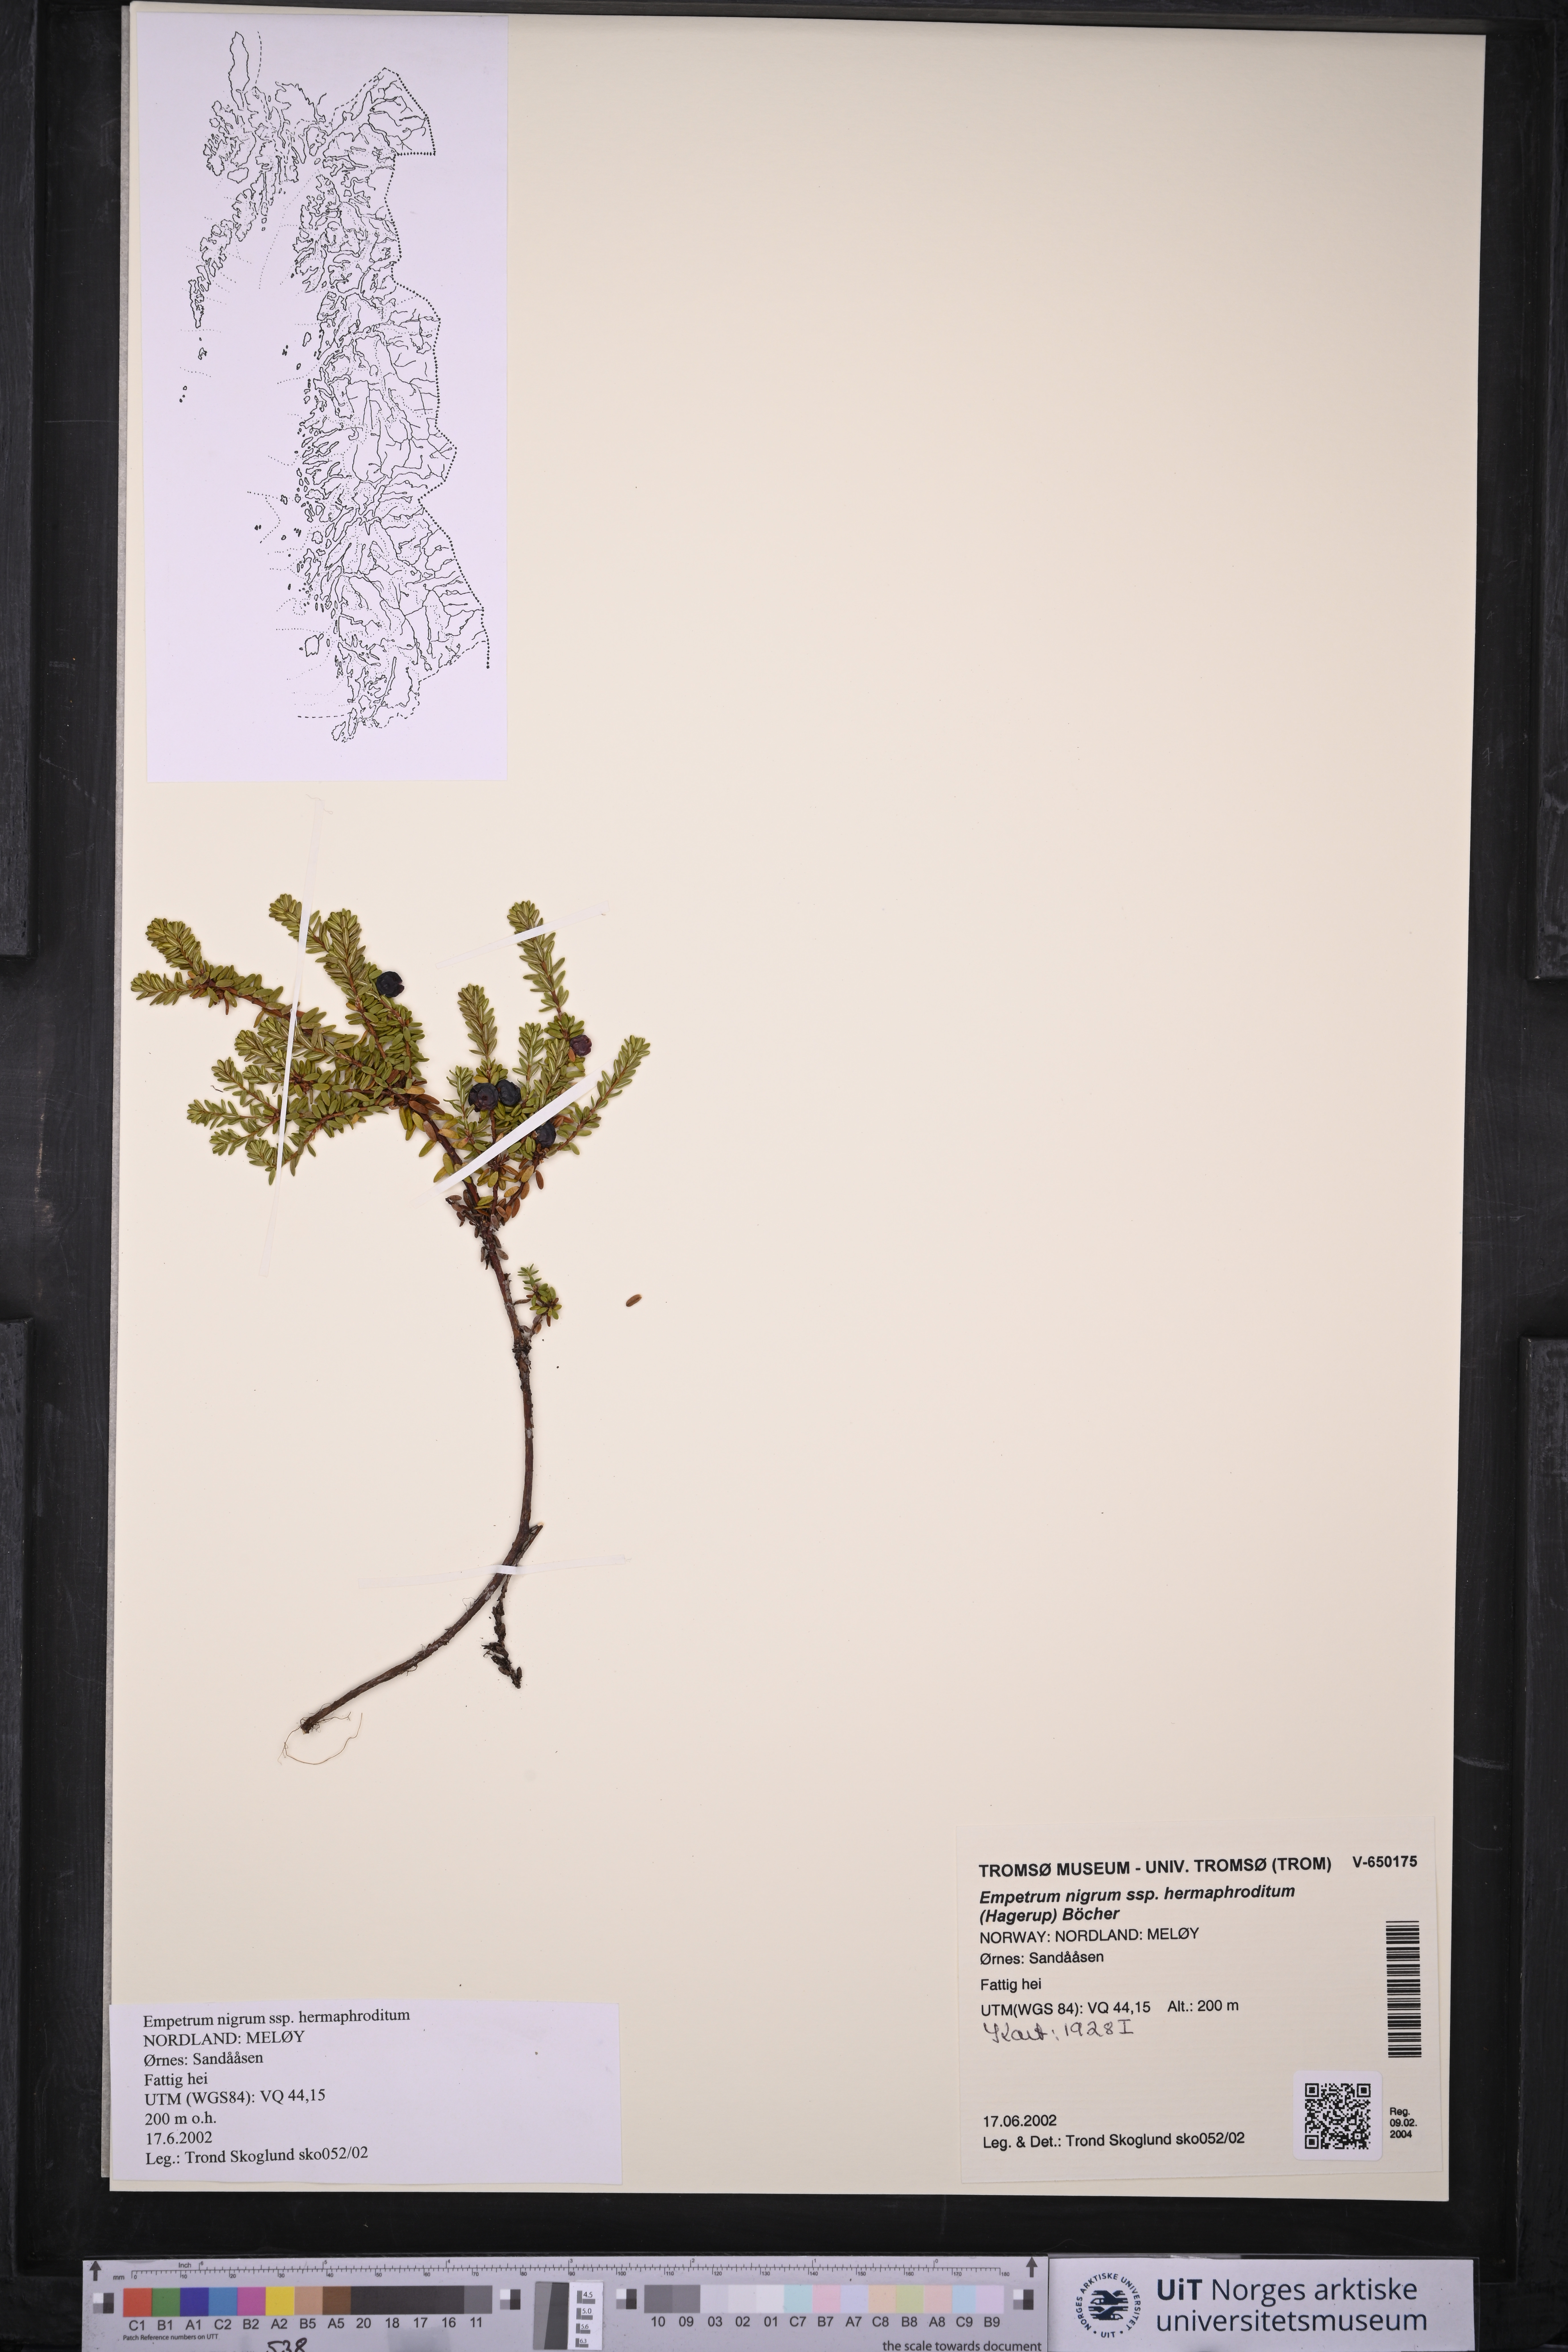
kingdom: Plantae
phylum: Tracheophyta
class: Magnoliopsida
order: Ericales
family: Ericaceae
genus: Empetrum
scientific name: Empetrum hermaphroditum
